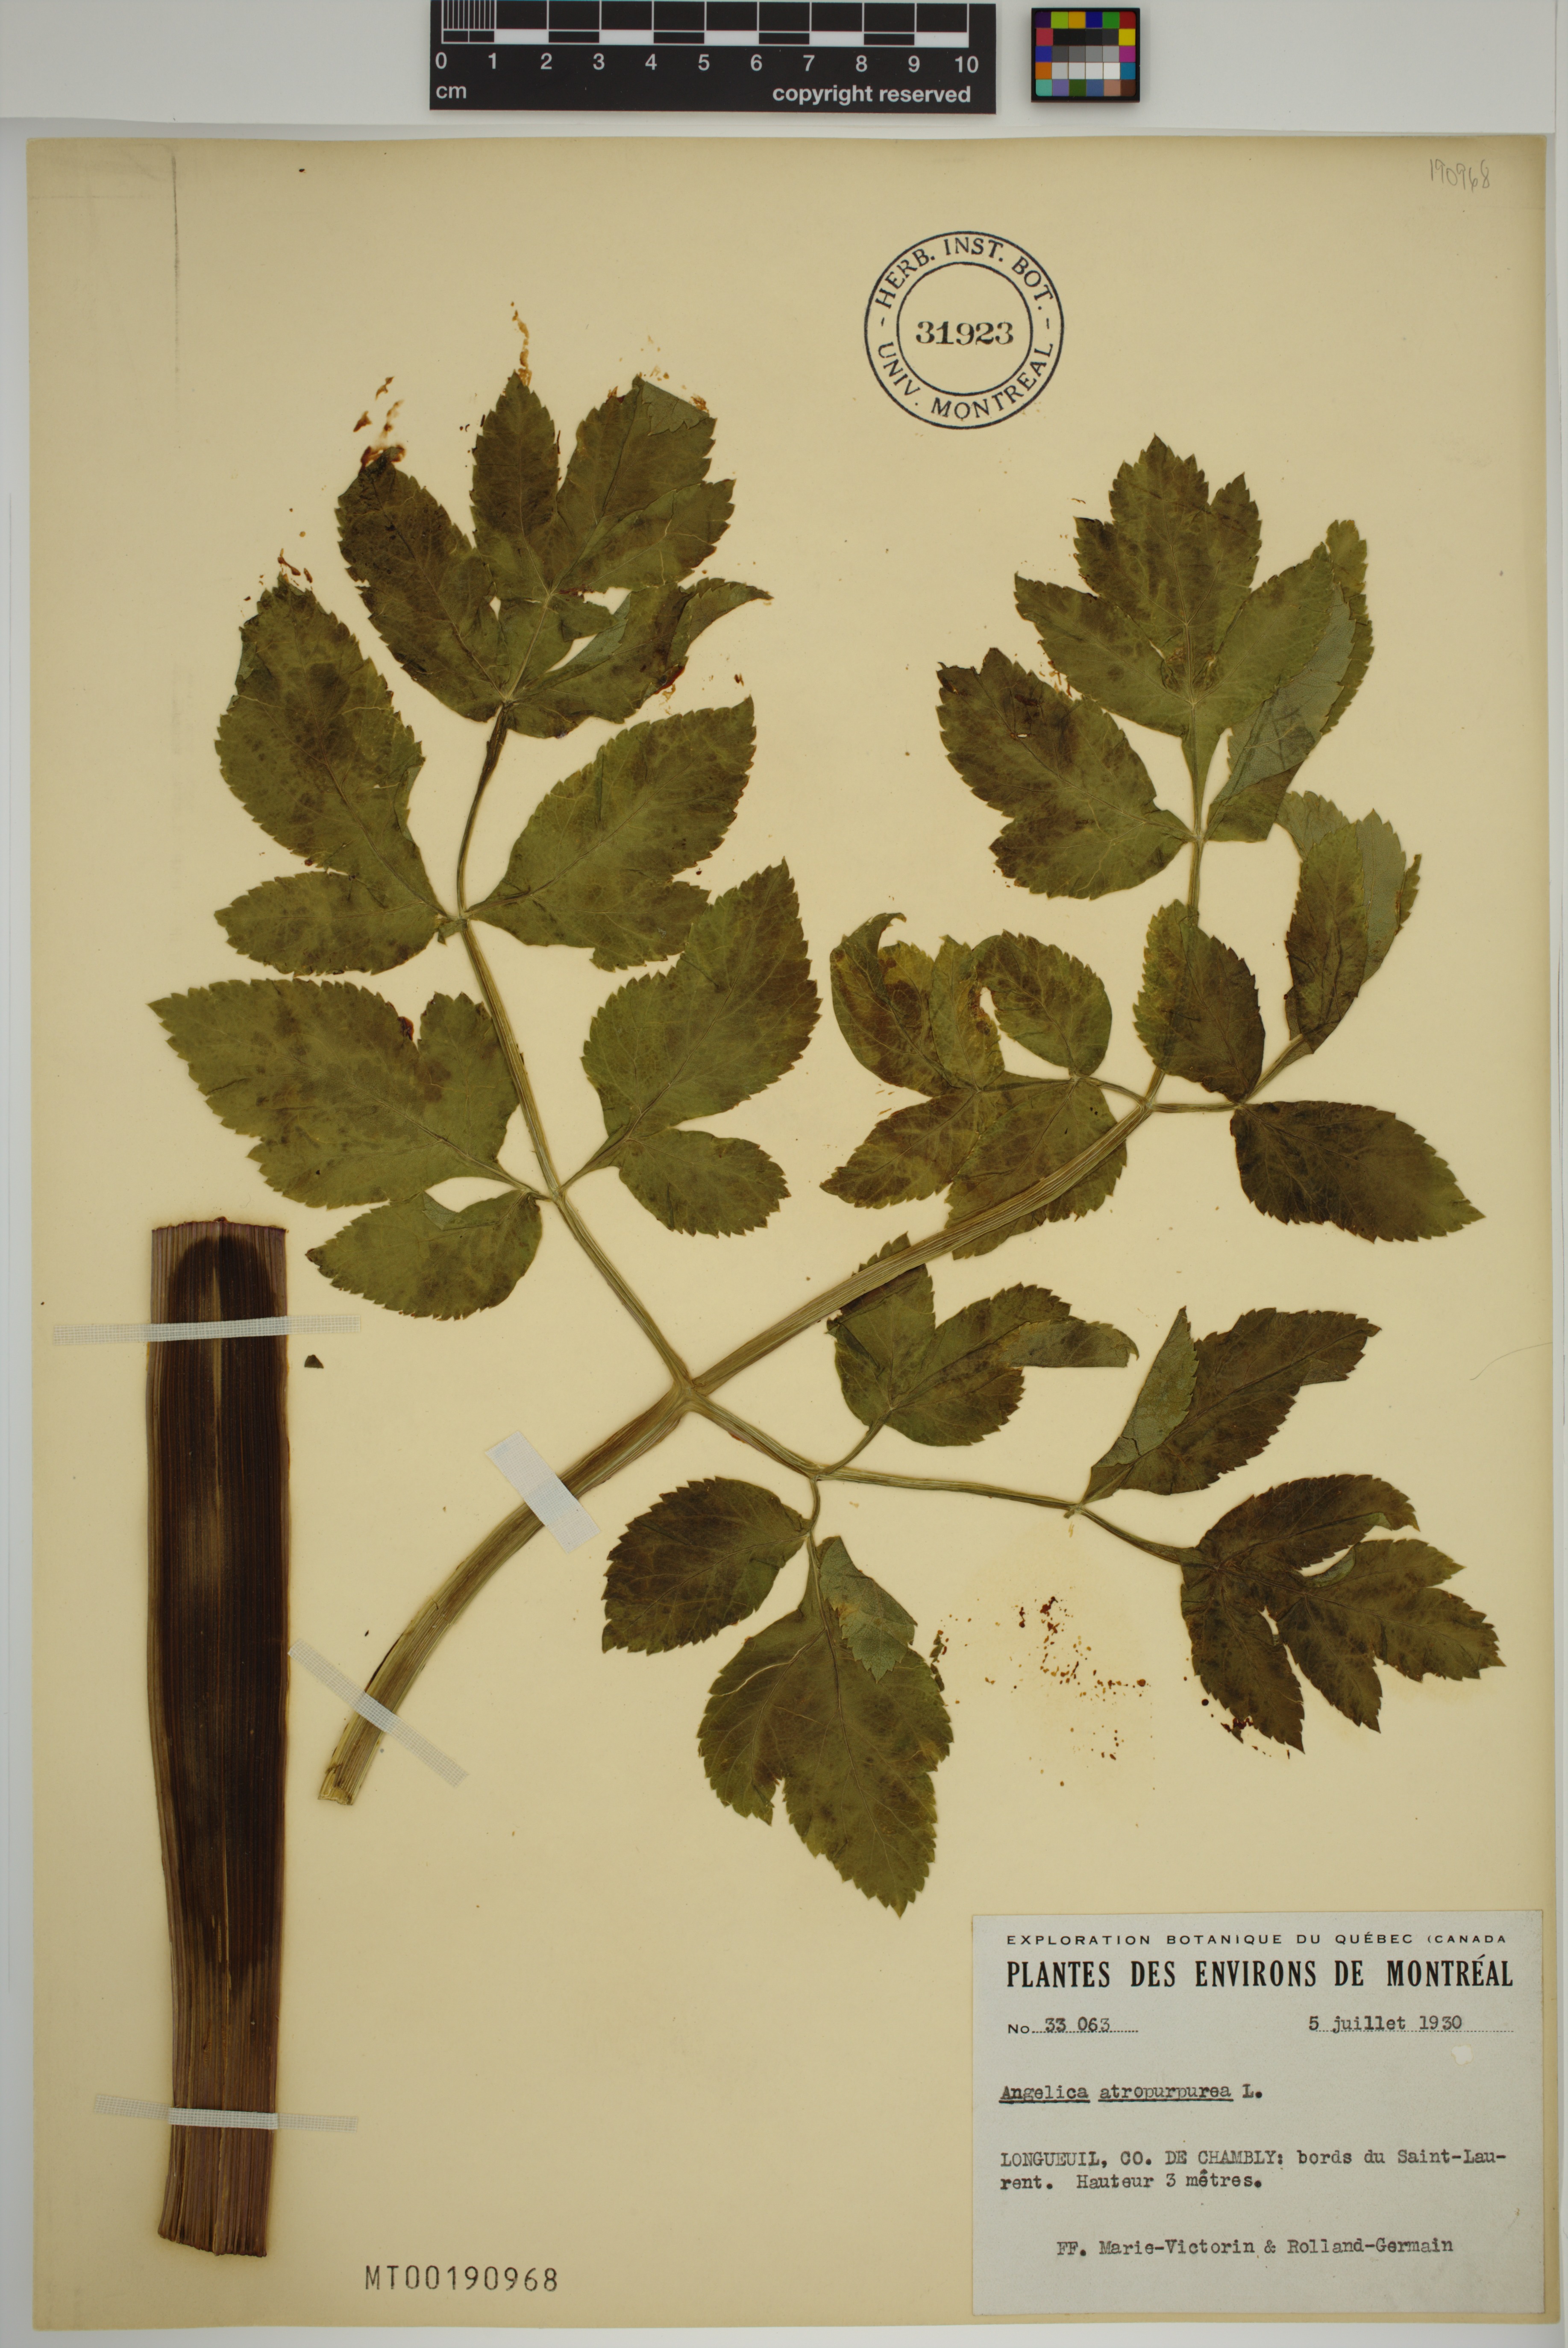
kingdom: Plantae
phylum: Tracheophyta
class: Magnoliopsida
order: Apiales
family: Apiaceae
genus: Angelica
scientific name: Angelica atropurpurea
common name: Great angelica
